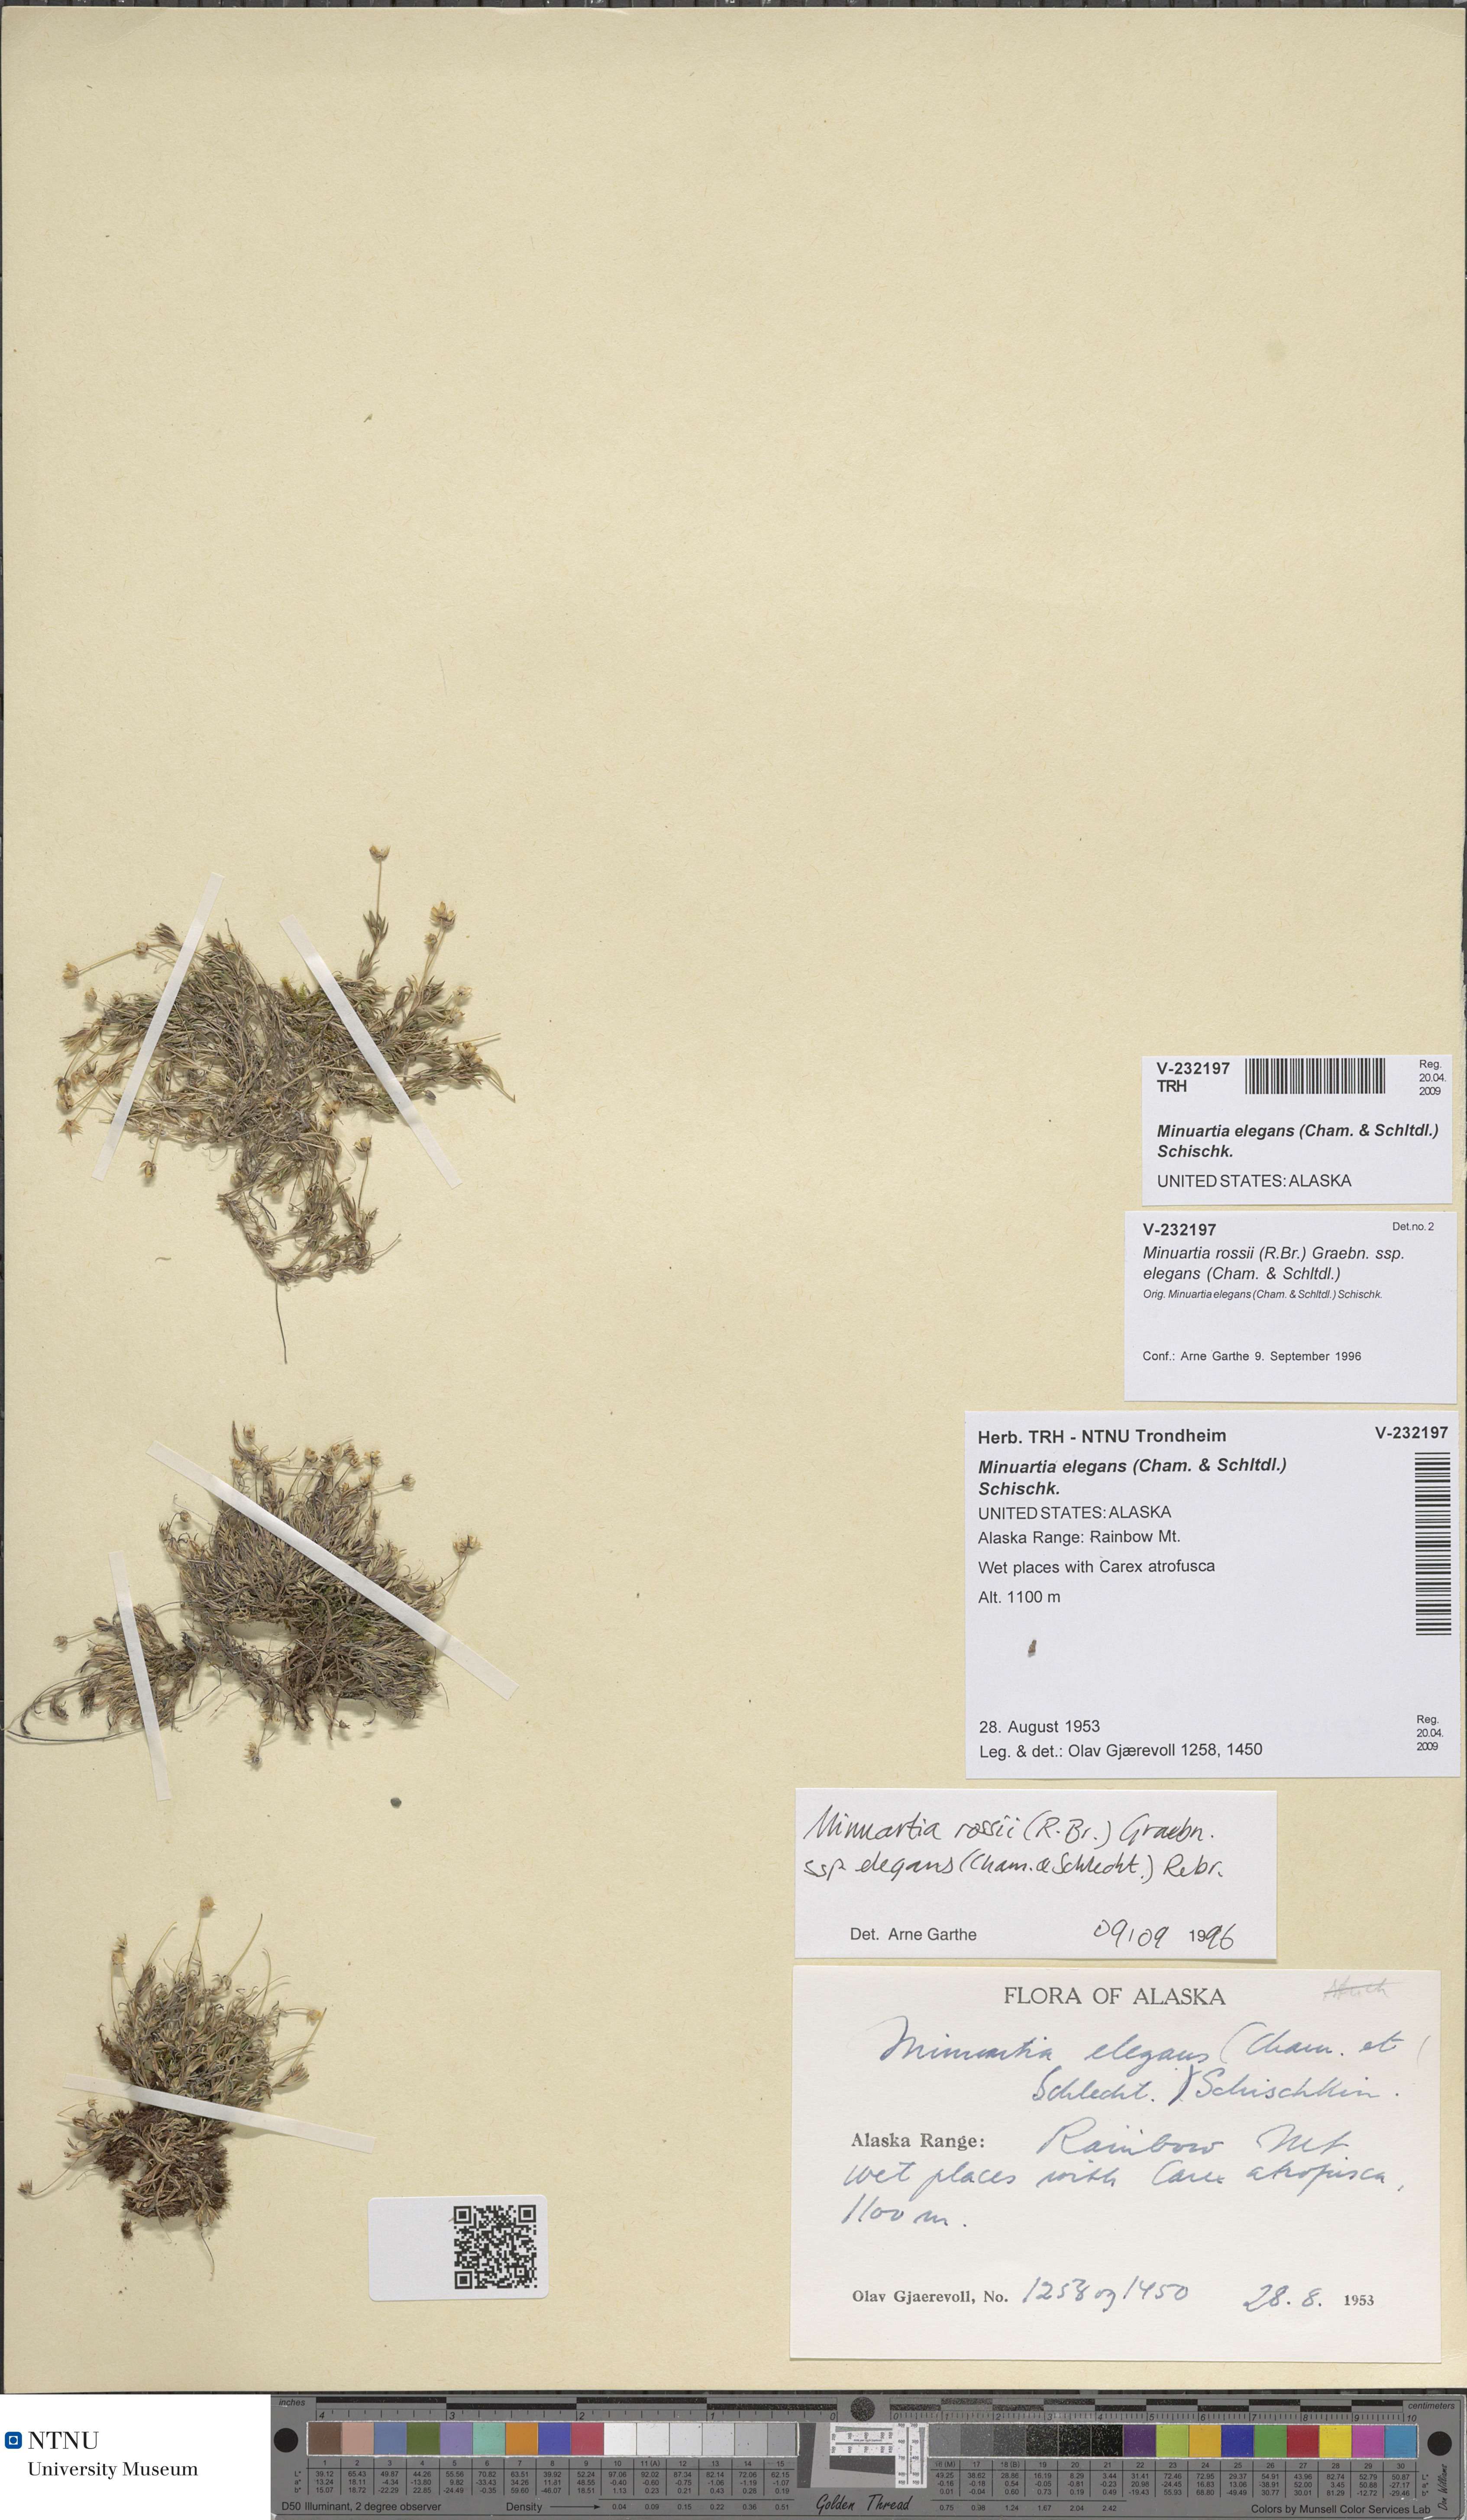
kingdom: Plantae
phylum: Tracheophyta
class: Magnoliopsida
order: Caryophyllales
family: Caryophyllaceae
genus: Sabulina
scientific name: Sabulina elegans
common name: Elegant stitchwort
